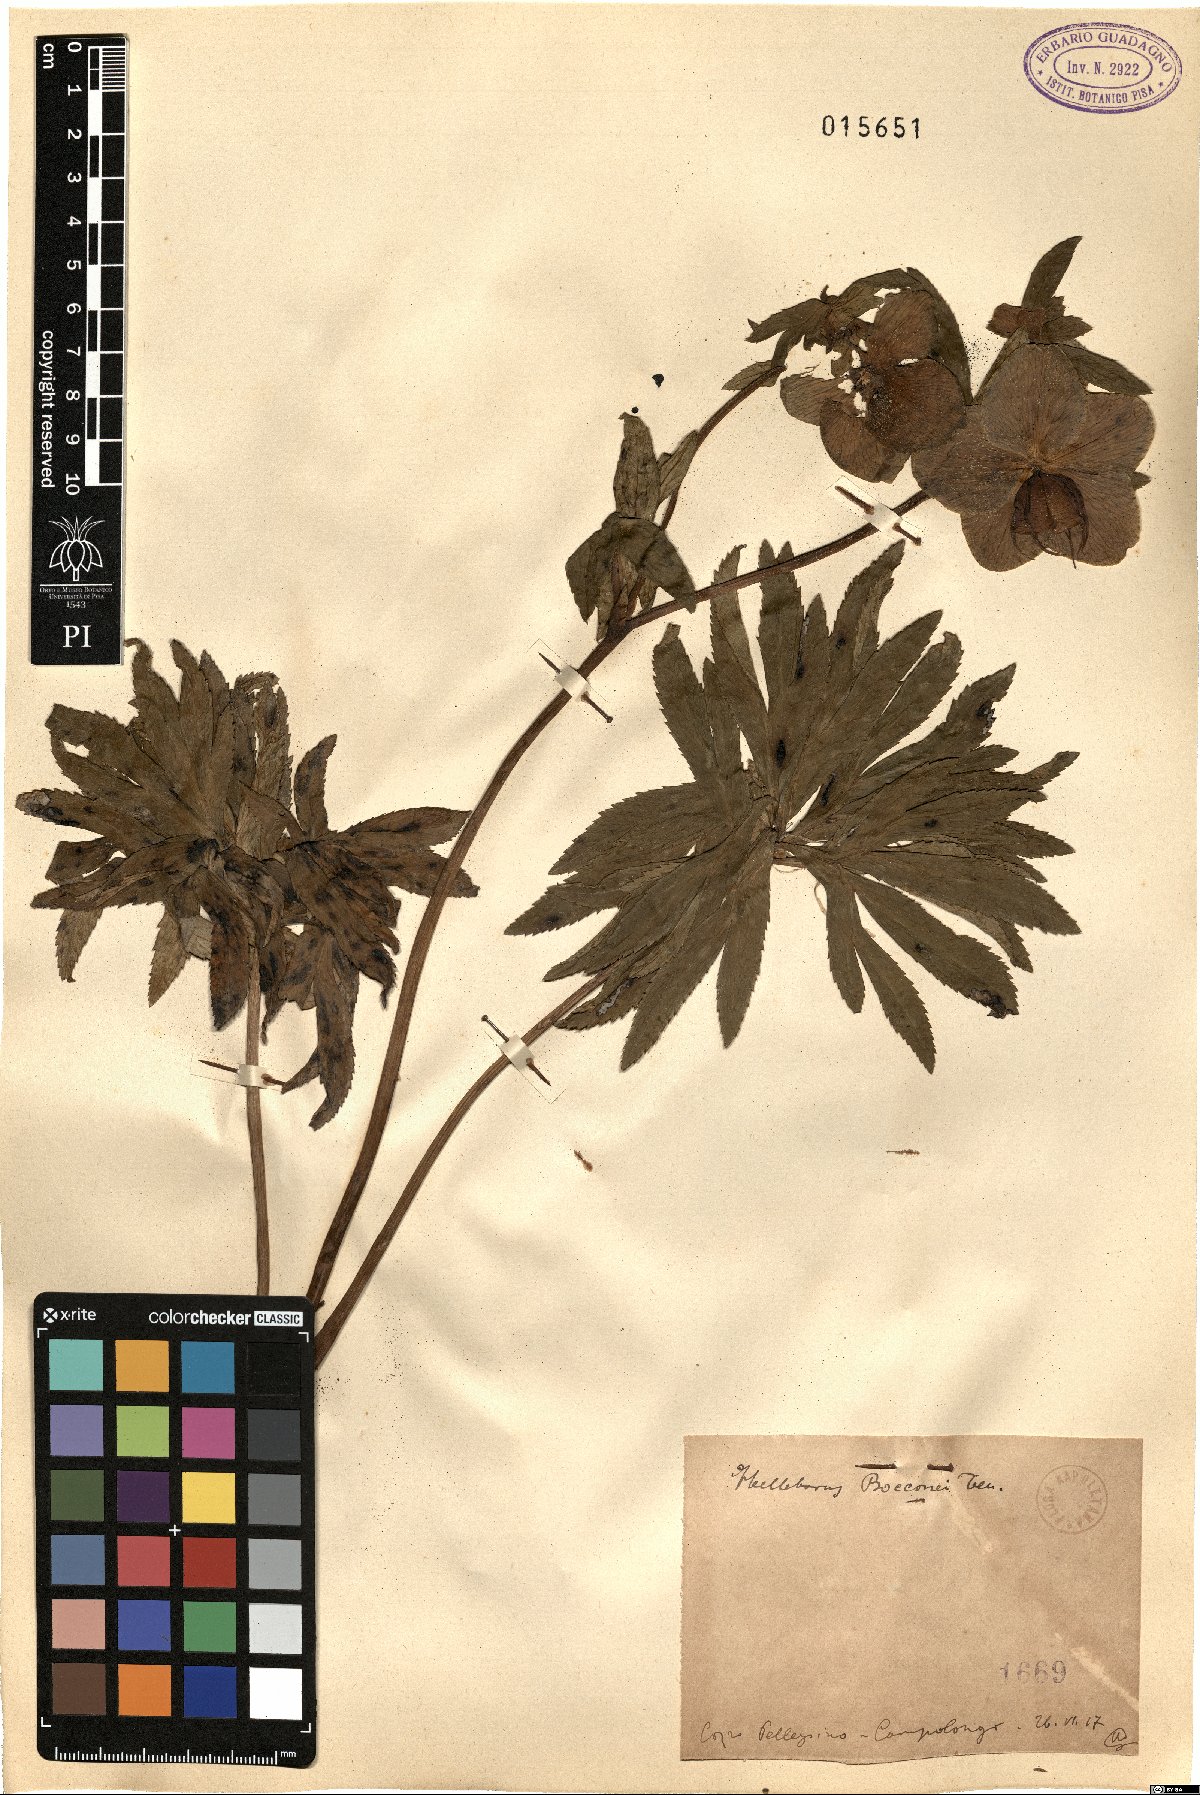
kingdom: Plantae
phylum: Tracheophyta
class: Magnoliopsida
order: Ranunculales
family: Ranunculaceae
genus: Helleborus
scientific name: Helleborus bocconei
